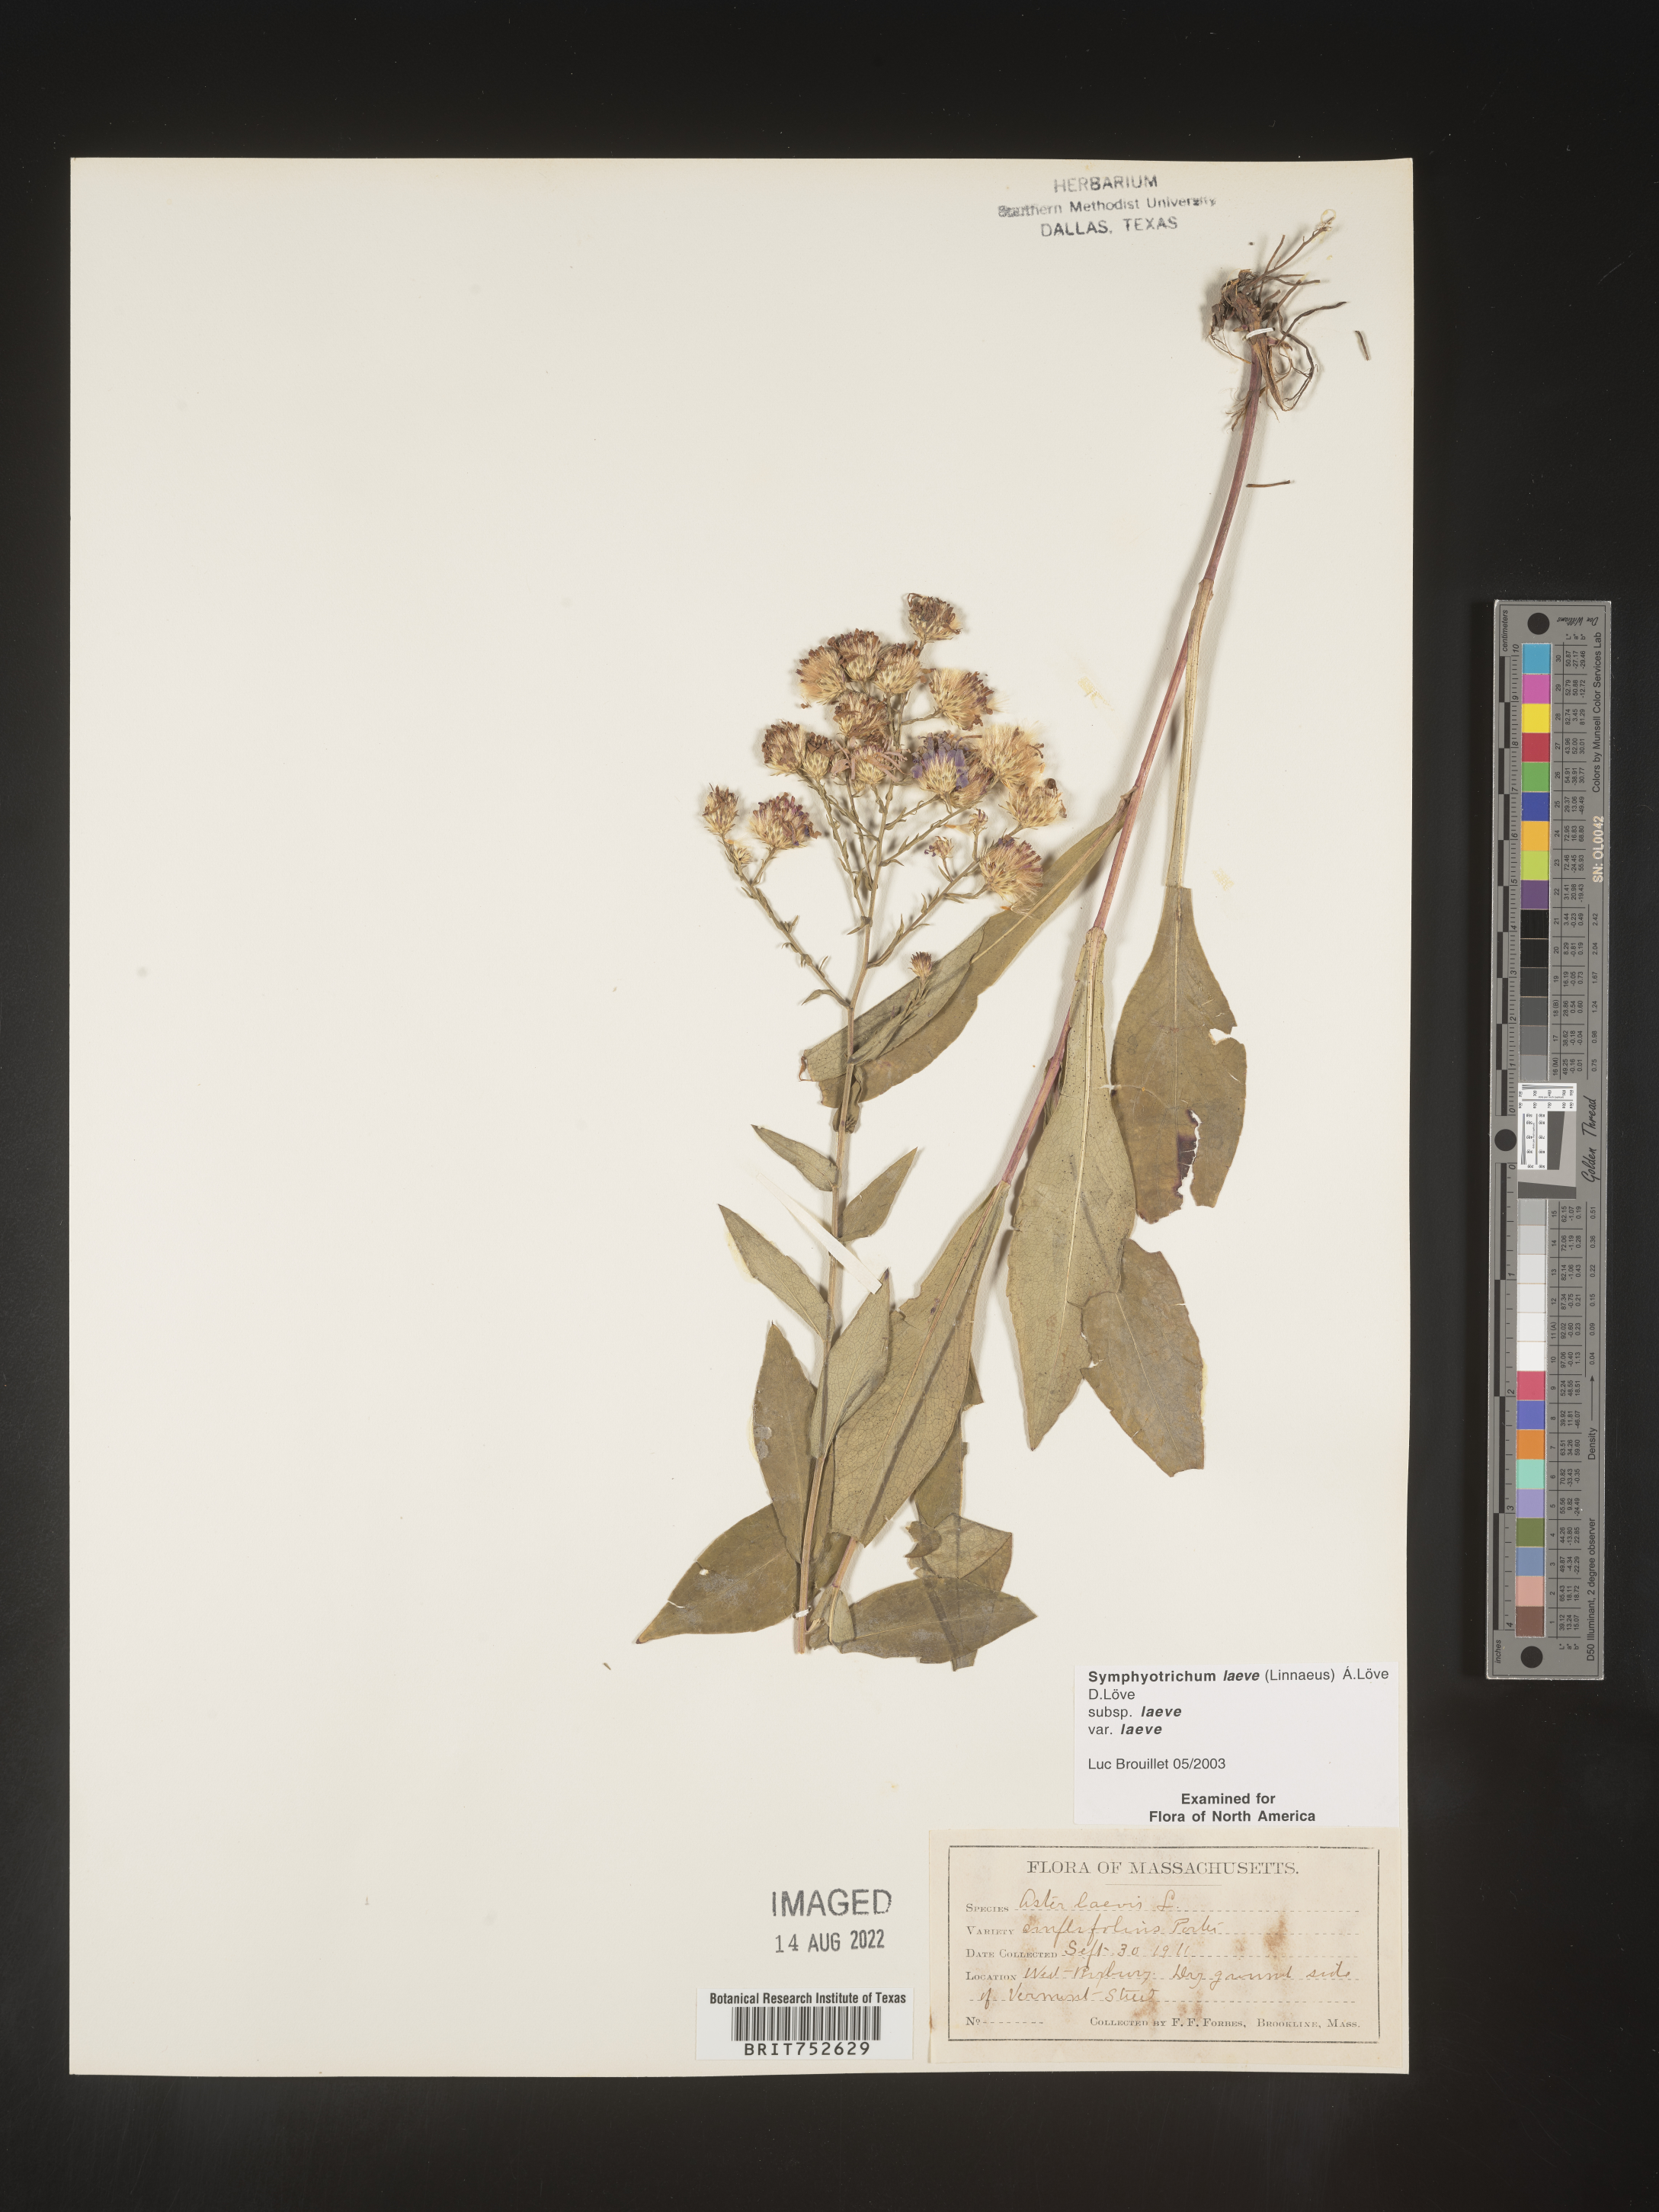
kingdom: Plantae
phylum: Tracheophyta
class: Magnoliopsida
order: Asterales
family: Asteraceae
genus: Symphyotrichum
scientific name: Symphyotrichum laeve
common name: Glaucous aster
